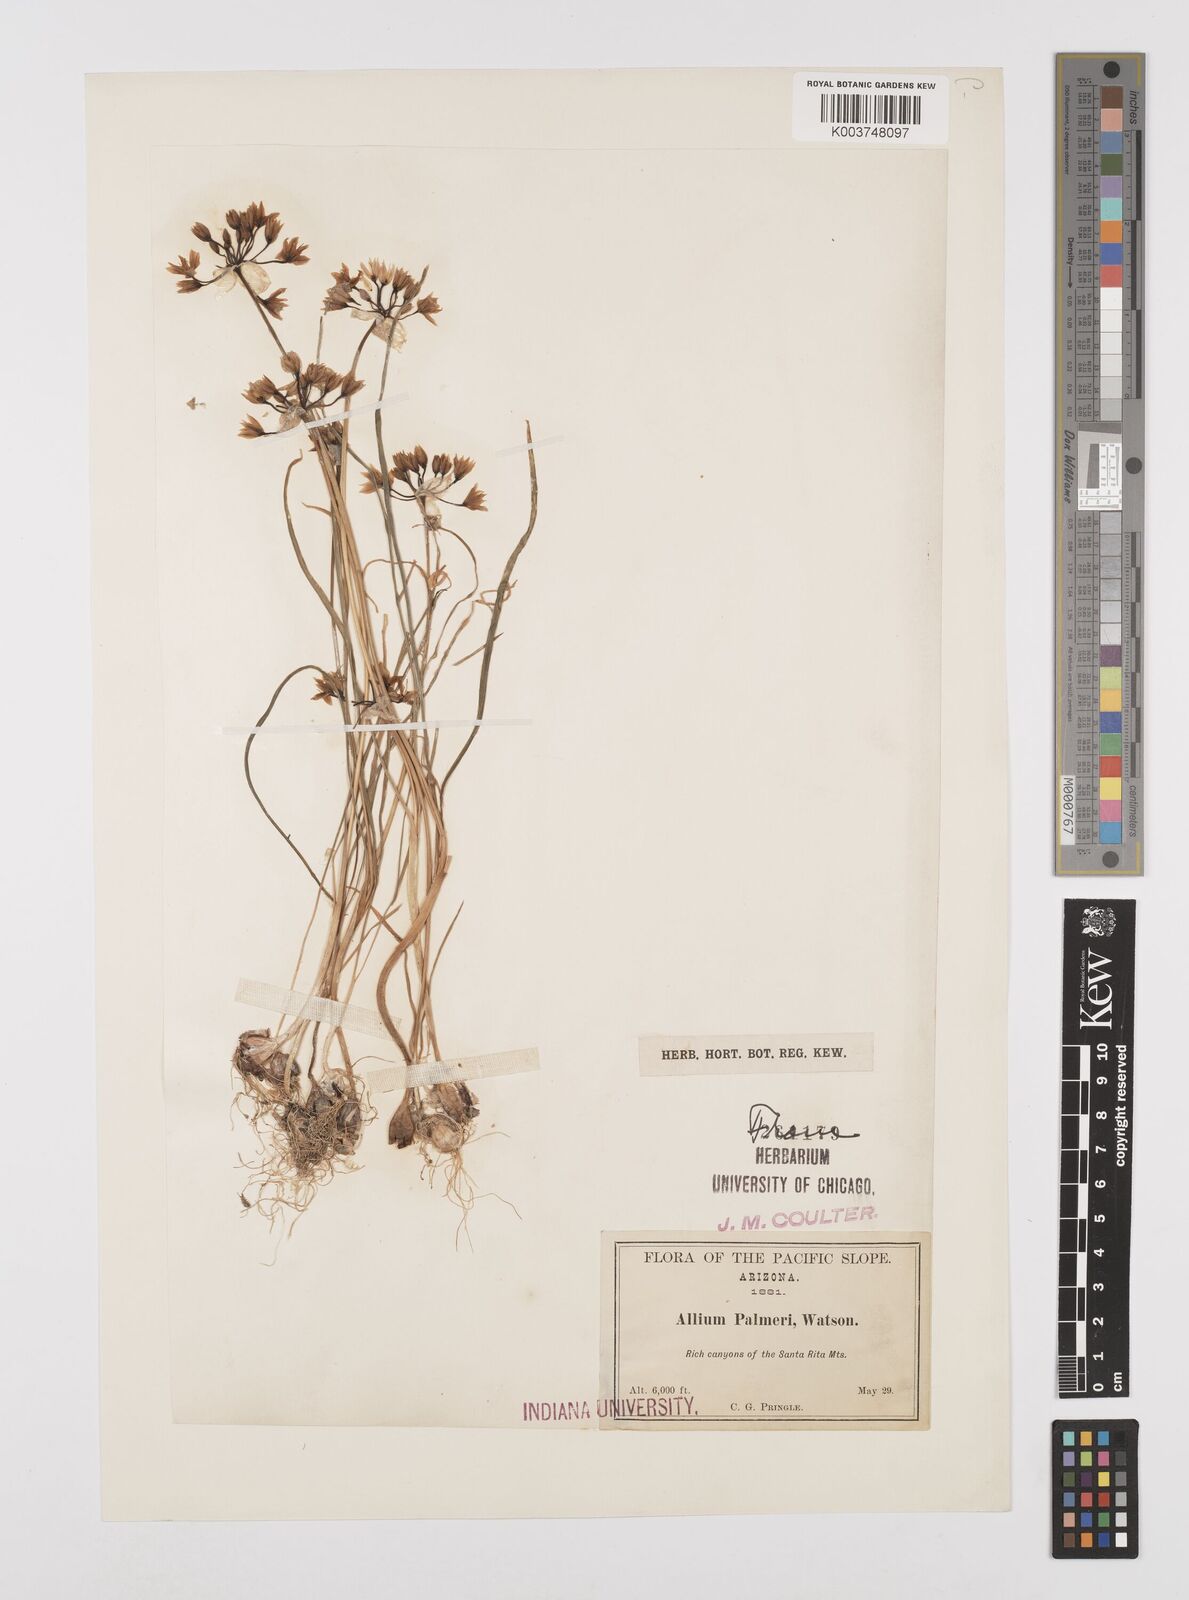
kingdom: Plantae
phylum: Tracheophyta
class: Liliopsida
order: Asparagales
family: Amaryllidaceae
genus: Allium
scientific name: Allium bisceptrum
